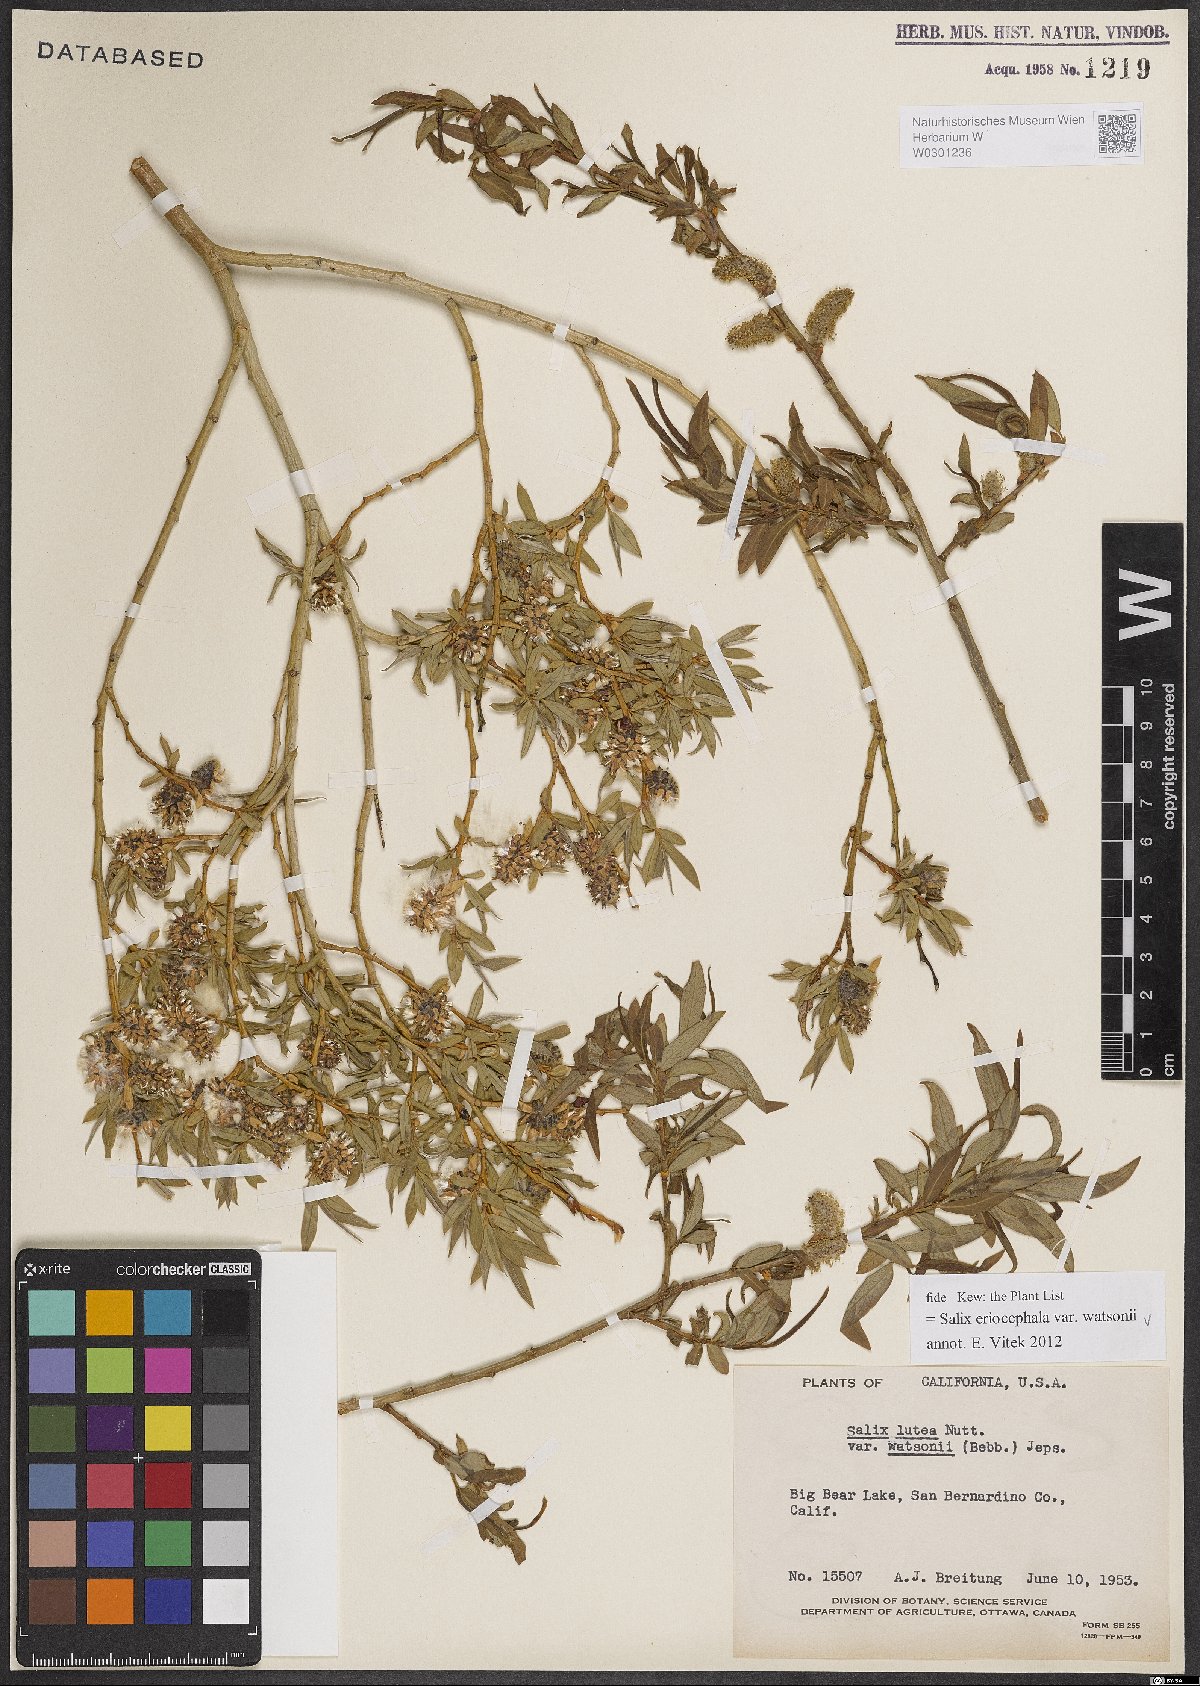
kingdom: Plantae
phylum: Tracheophyta
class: Magnoliopsida
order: Malpighiales
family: Salicaceae
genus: Salix
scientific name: Salix lutea
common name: Yellow willow
